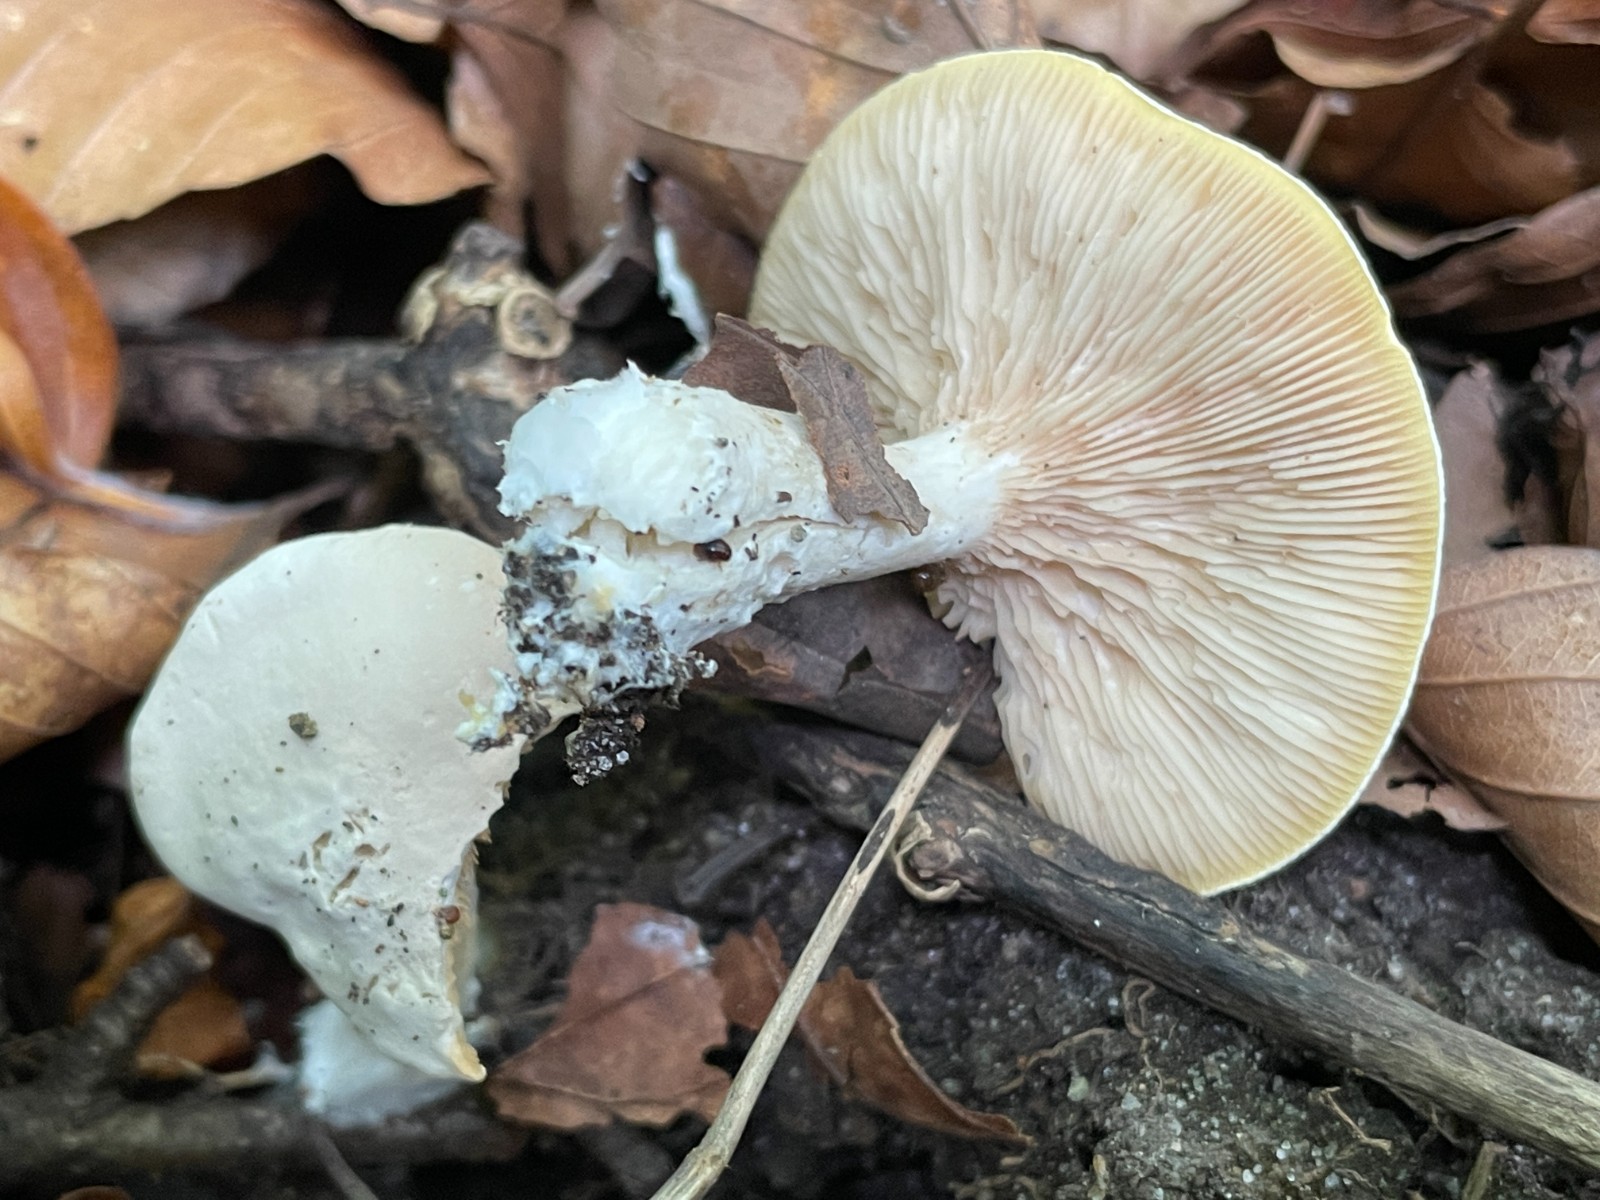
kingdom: Fungi
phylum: Basidiomycota
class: Agaricomycetes
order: Agaricales
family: Entolomataceae
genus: Clitopilus
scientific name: Clitopilus prunulus
